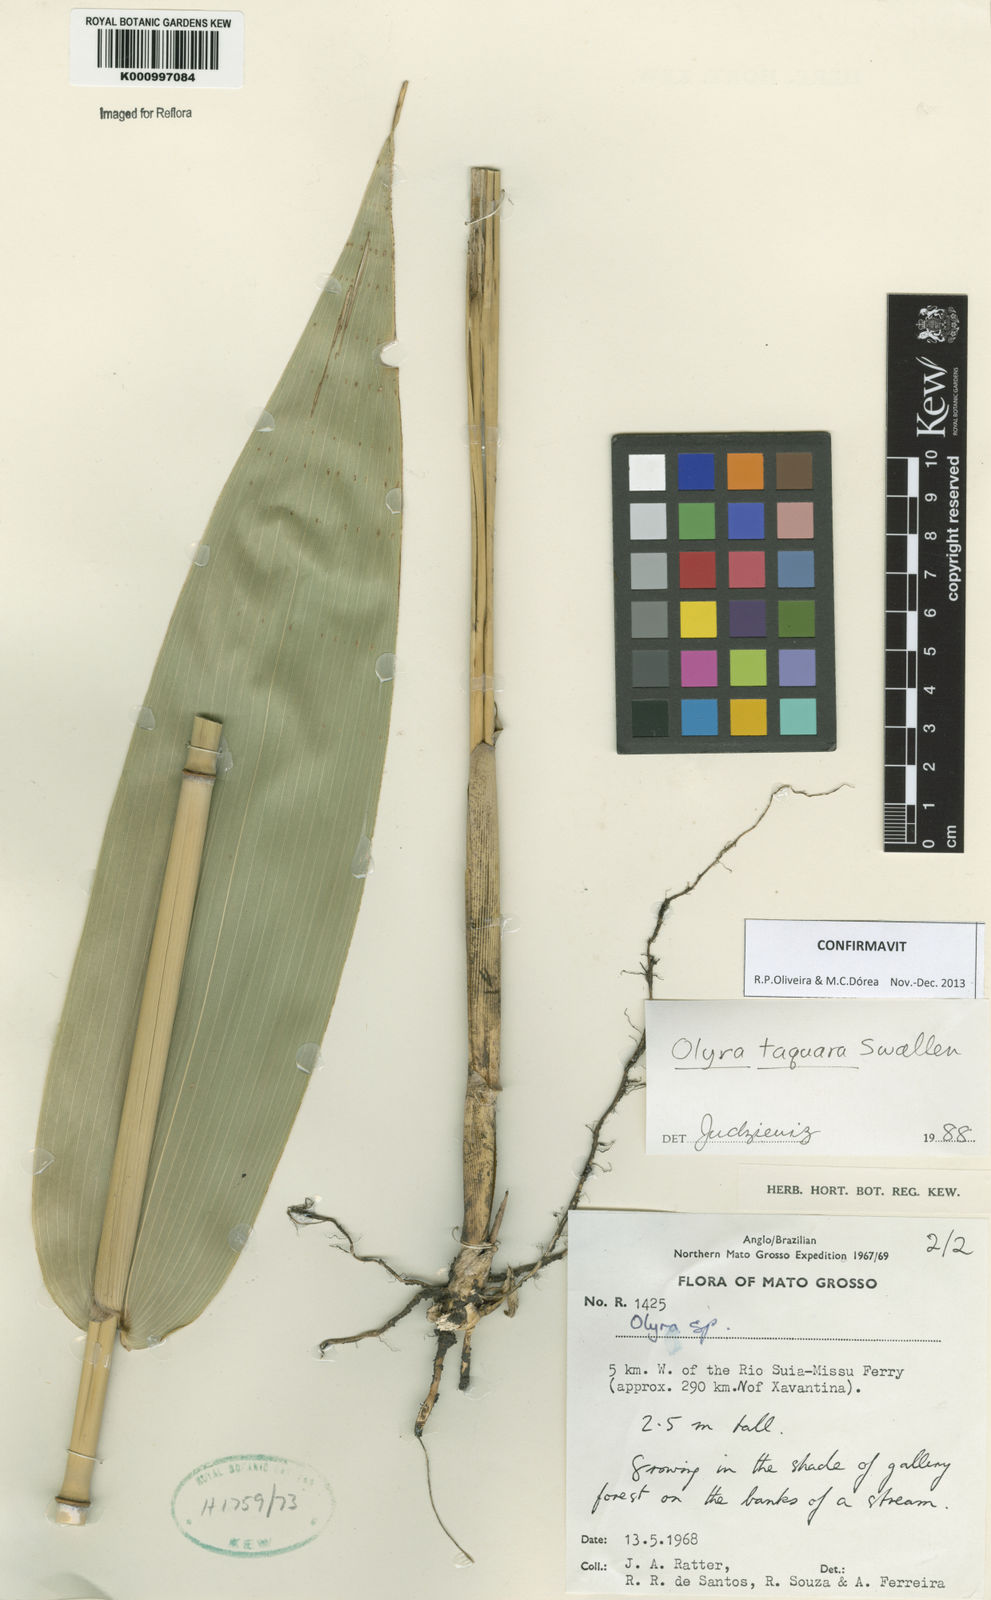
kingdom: Plantae
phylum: Tracheophyta
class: Liliopsida
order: Poales
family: Poaceae
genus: Olyra
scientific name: Olyra taquara
